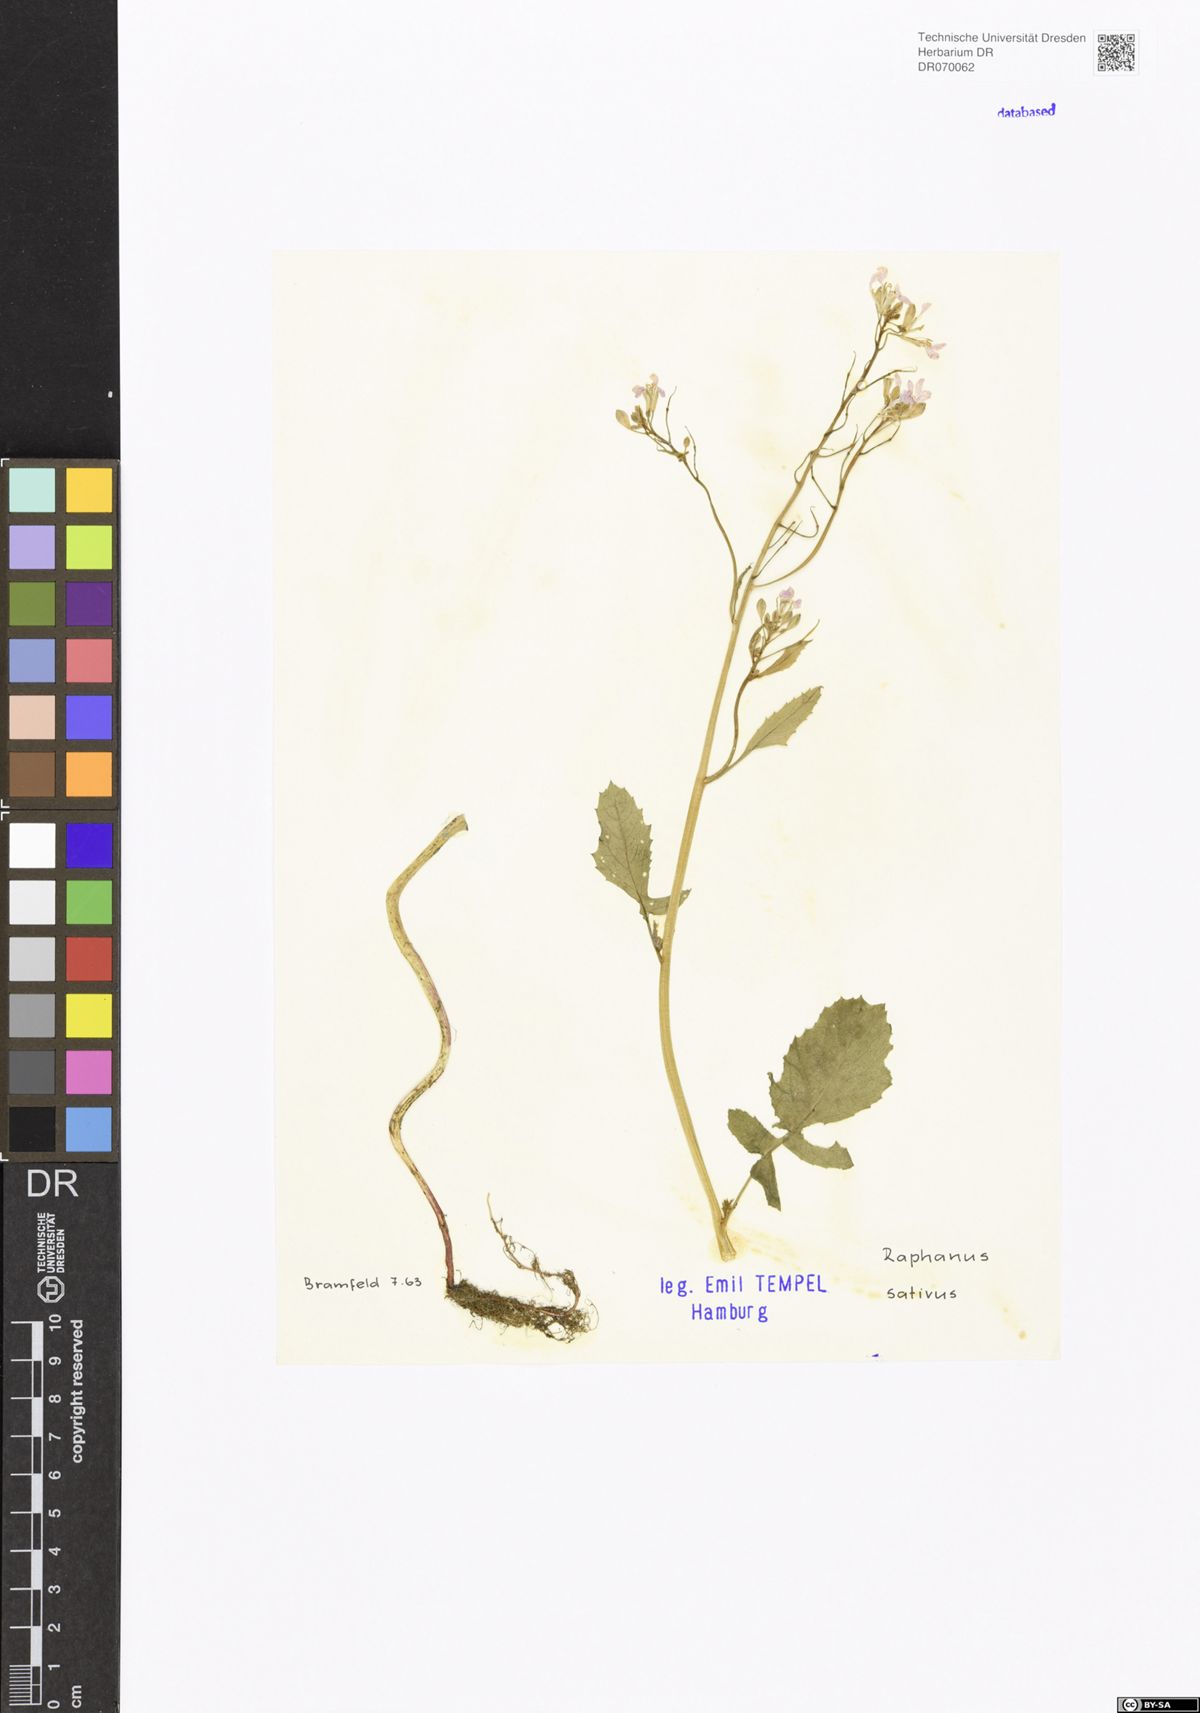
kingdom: Plantae
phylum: Tracheophyta
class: Magnoliopsida
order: Brassicales
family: Brassicaceae
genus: Raphanus
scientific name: Raphanus sativus
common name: Cultivated radish
